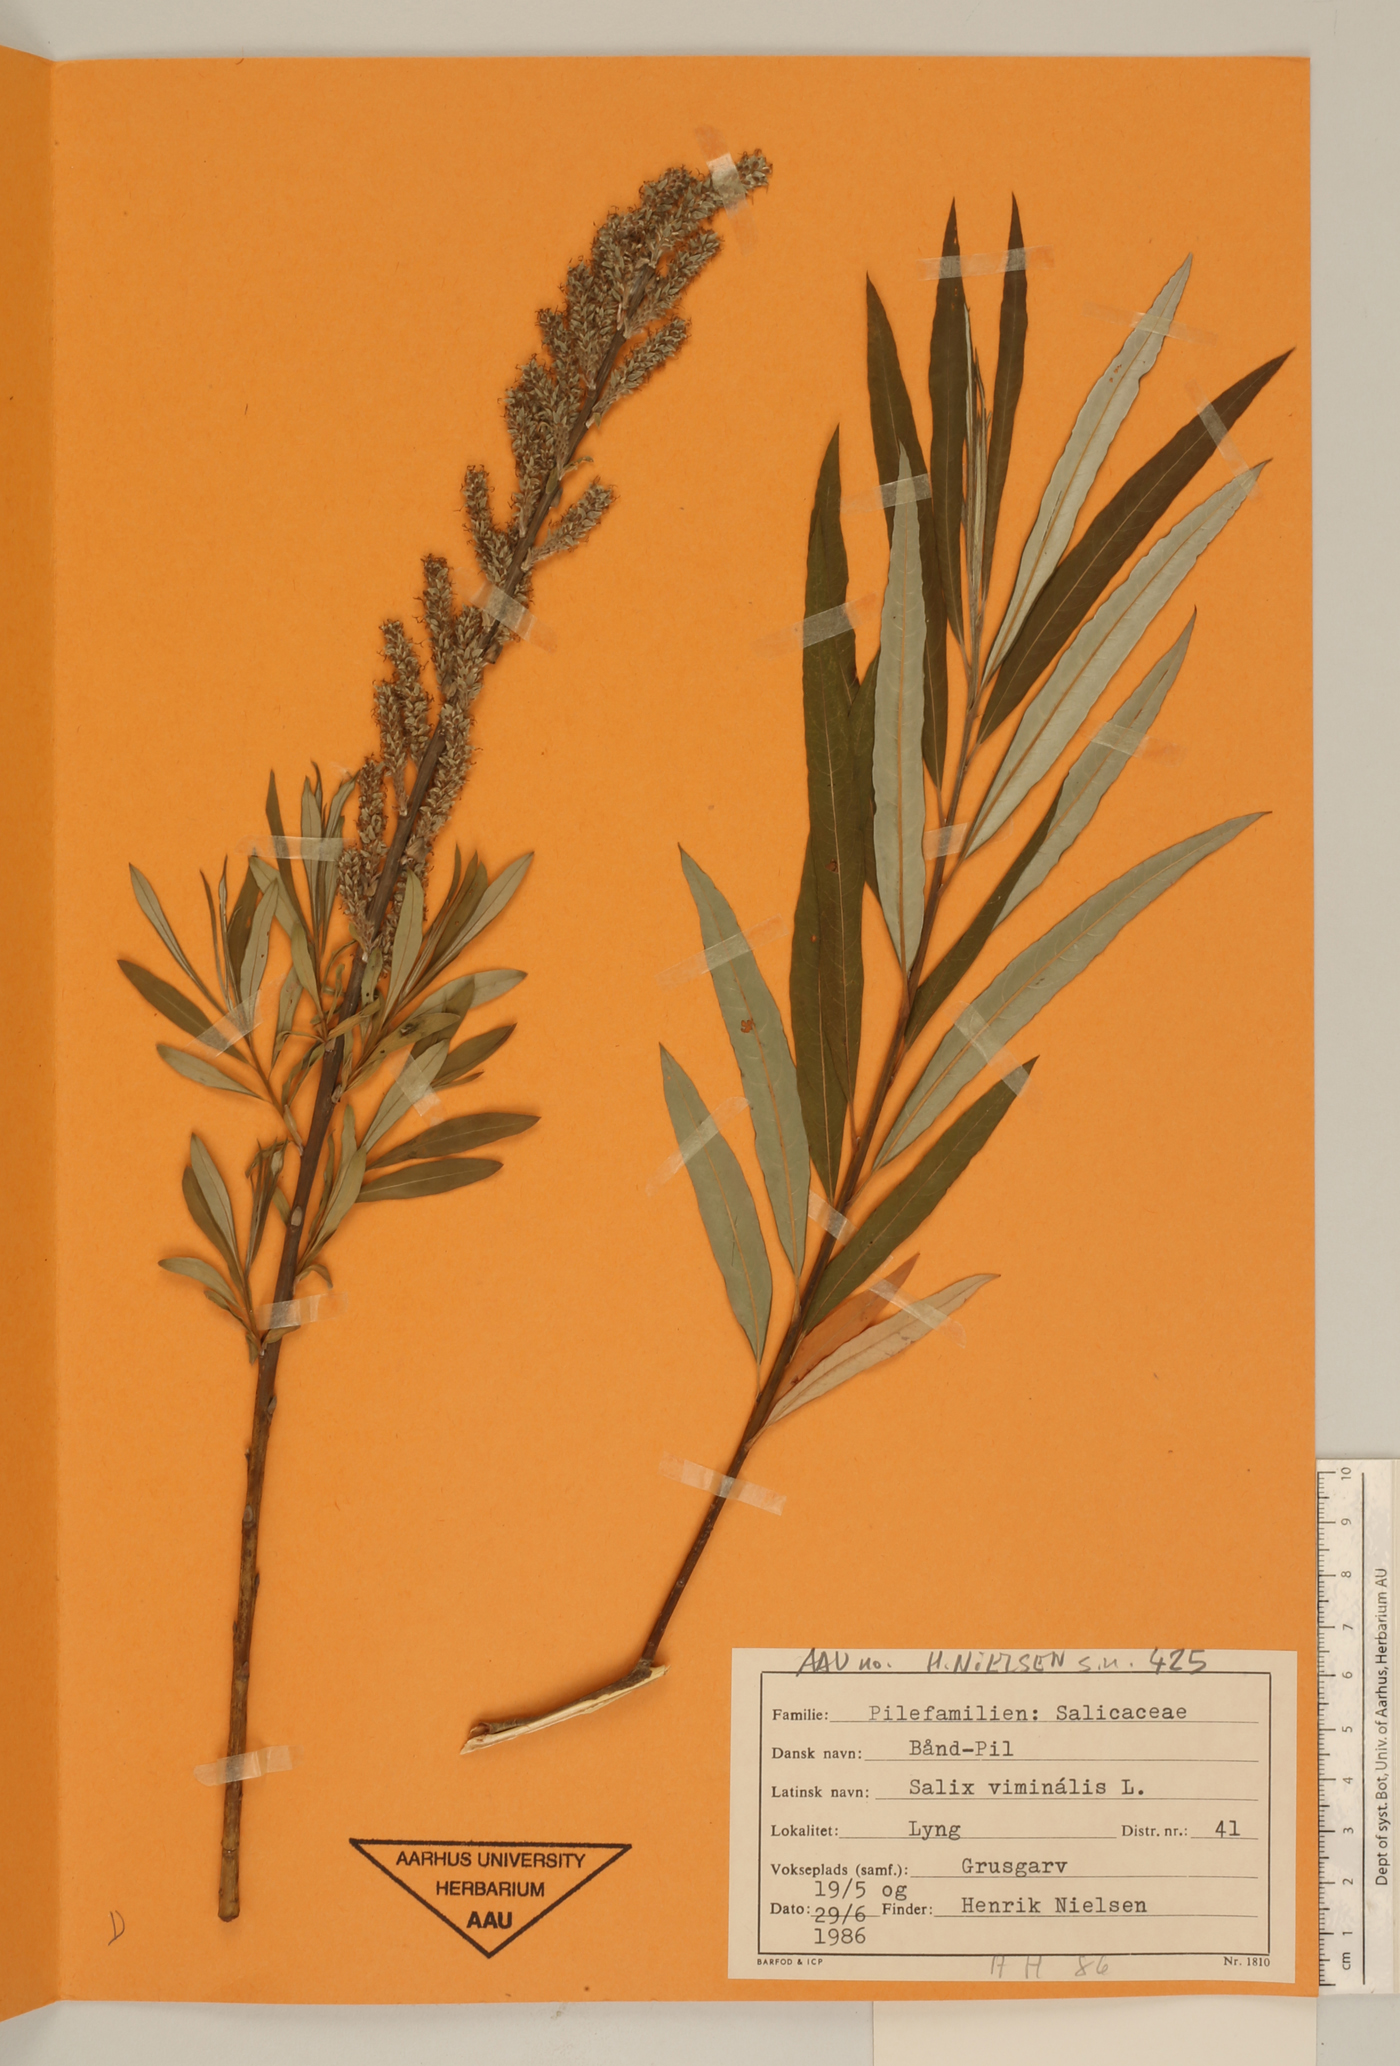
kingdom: Plantae
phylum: Tracheophyta
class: Magnoliopsida
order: Malpighiales
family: Salicaceae
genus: Salix
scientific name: Salix viminalis
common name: Osier
